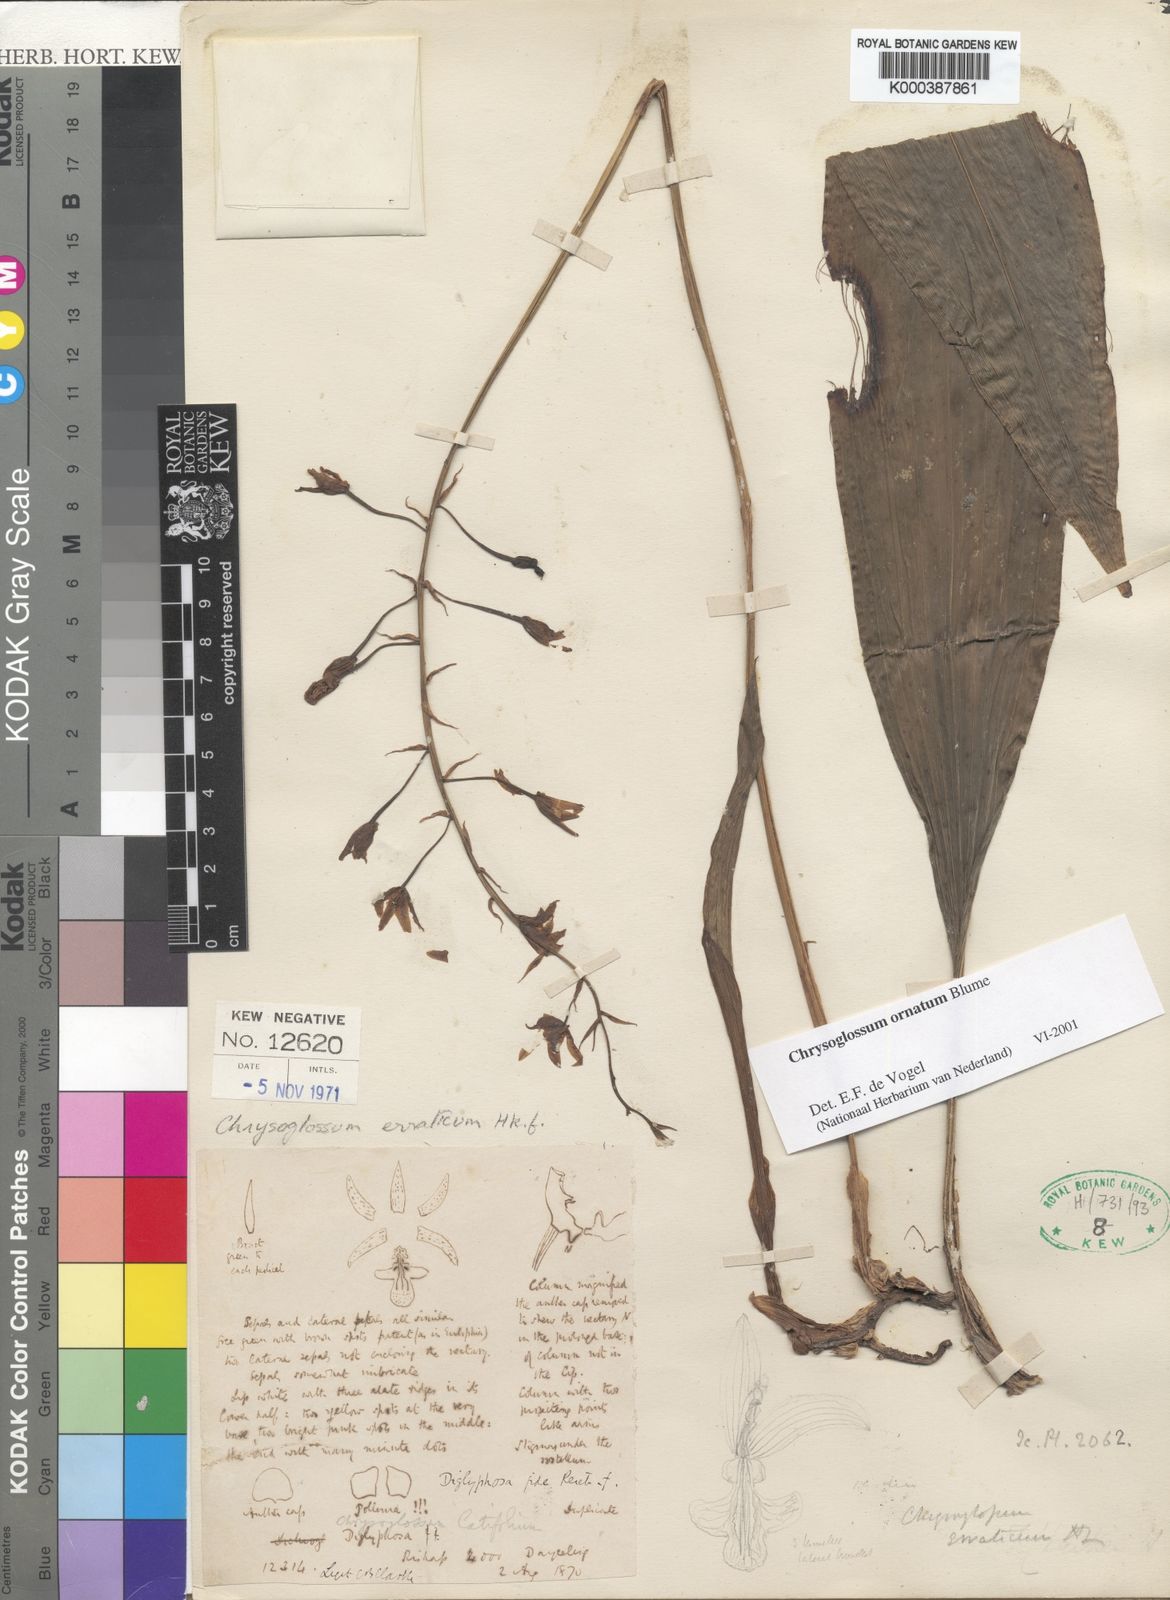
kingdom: Plantae
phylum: Tracheophyta
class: Liliopsida
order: Asparagales
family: Orchidaceae
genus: Chrysoglossum
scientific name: Chrysoglossum ornatum
